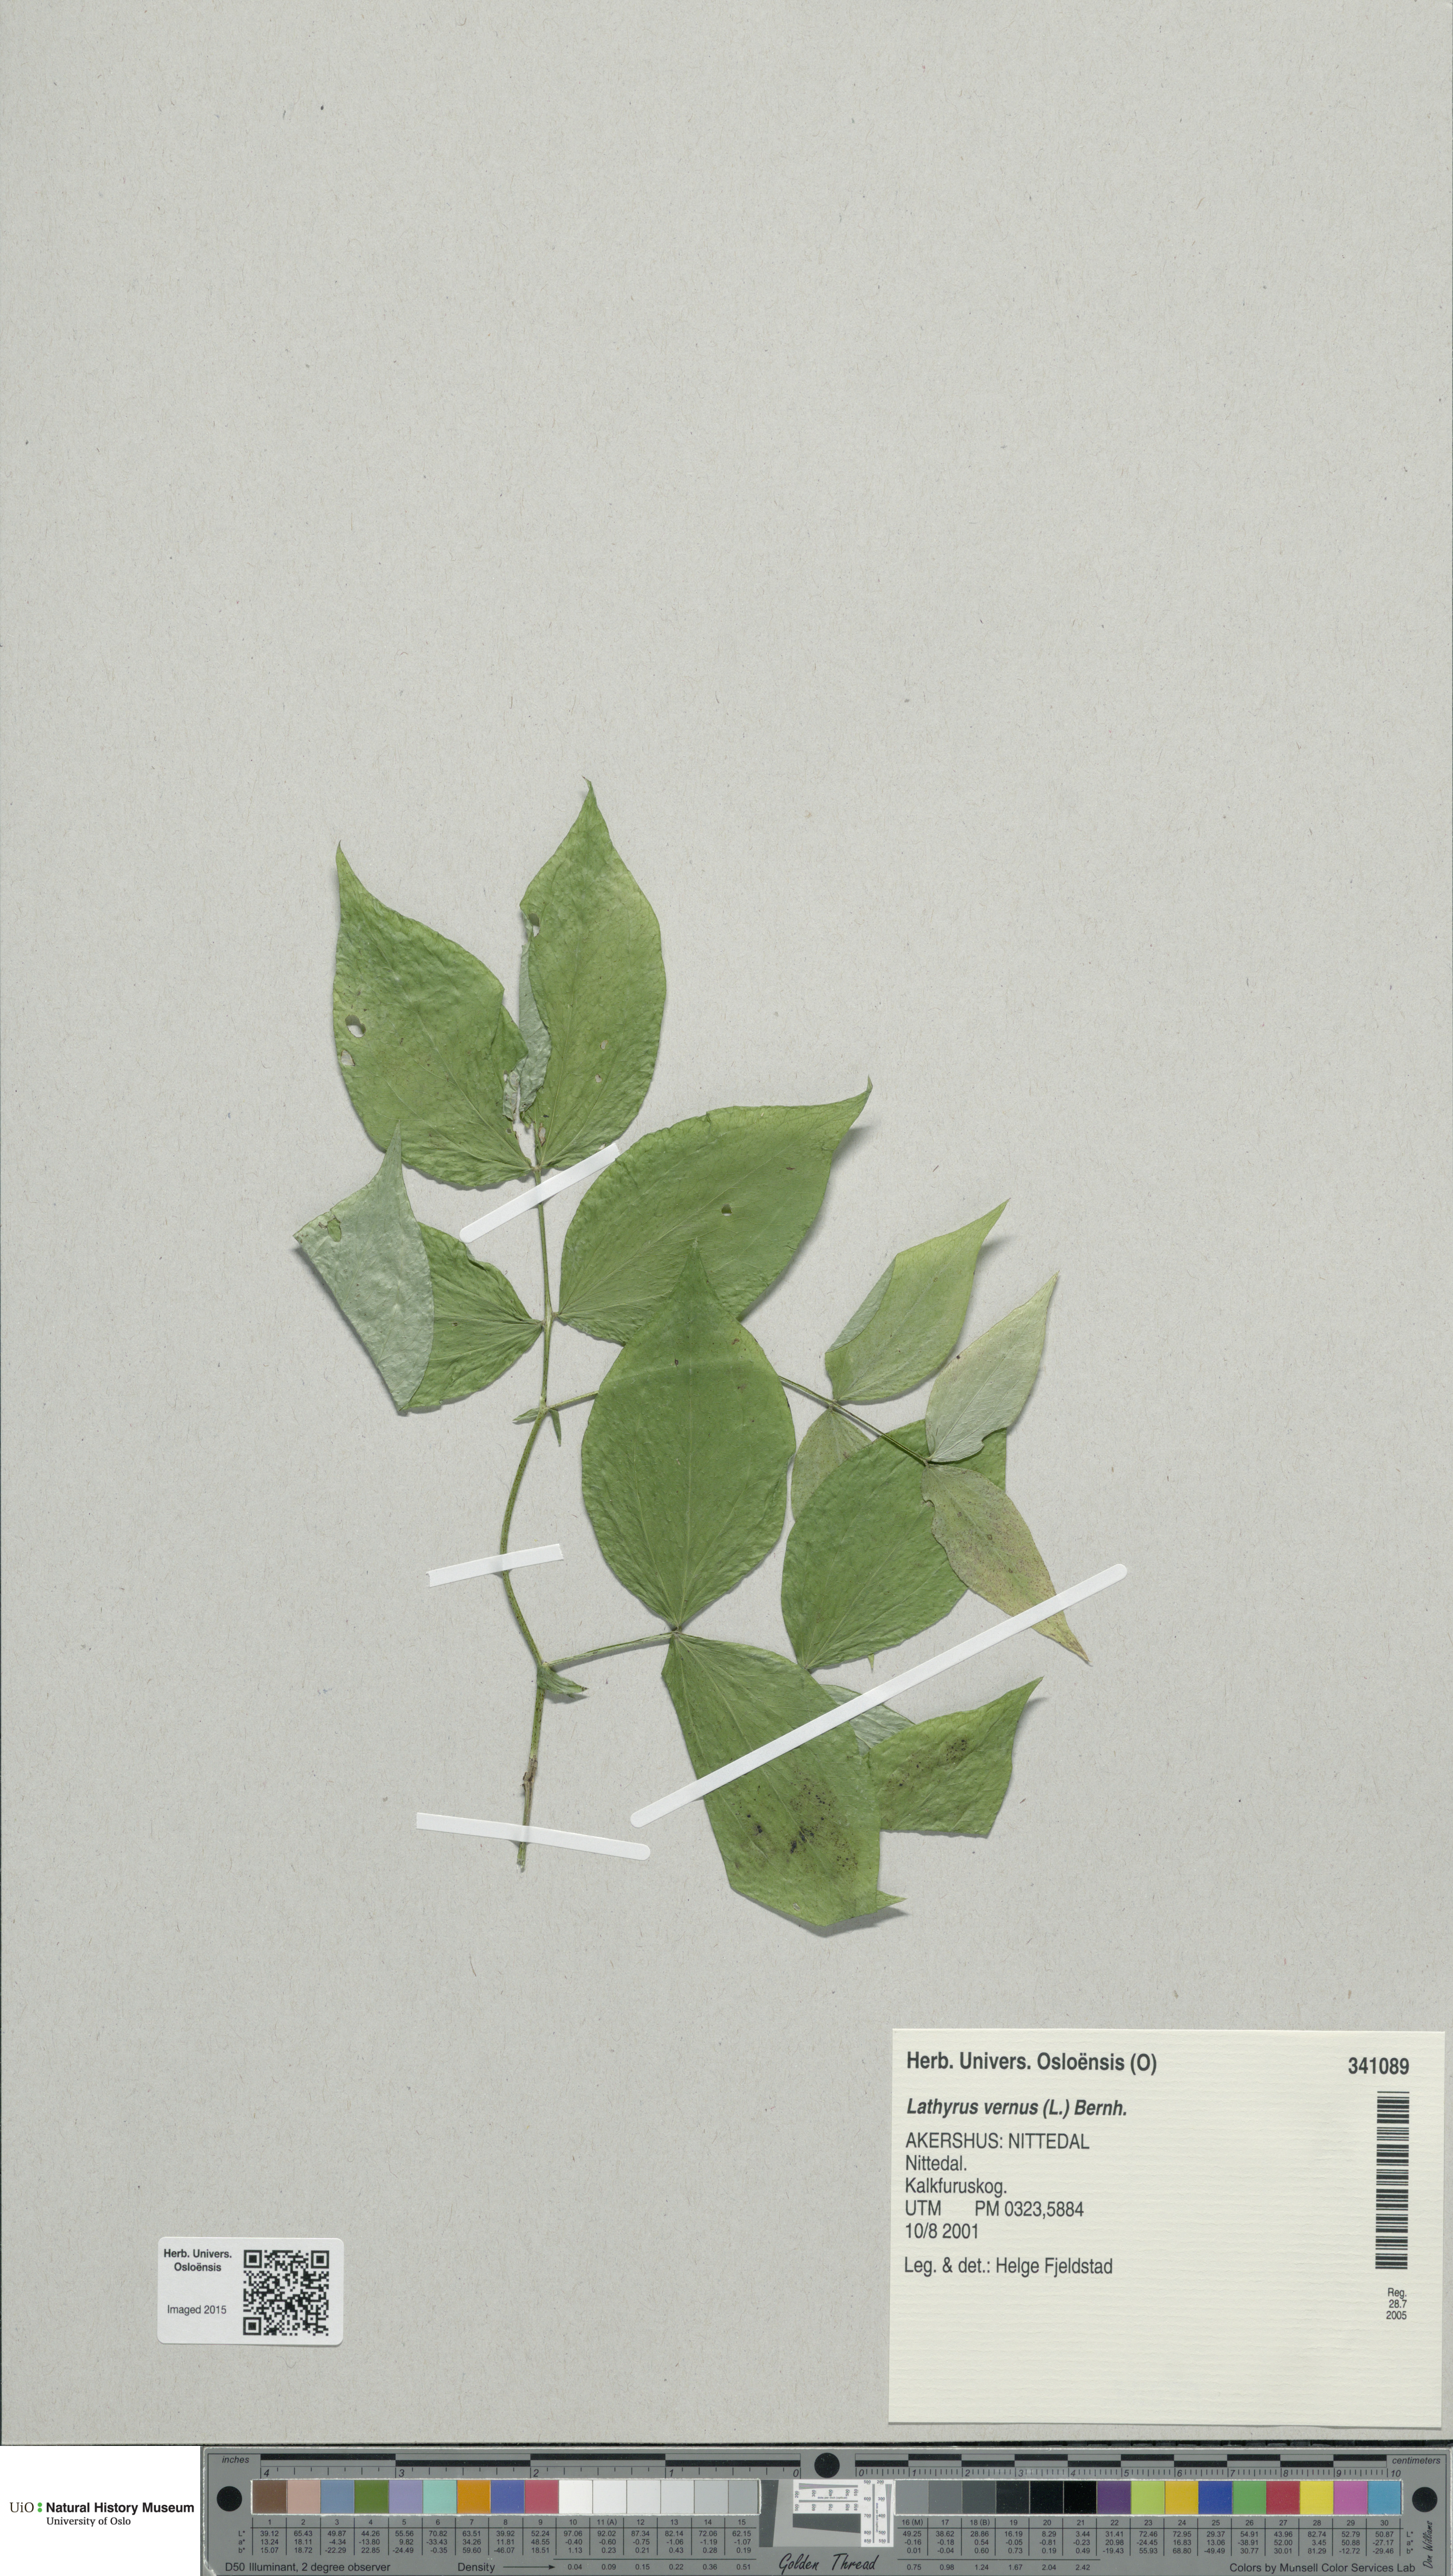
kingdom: Plantae
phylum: Tracheophyta
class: Magnoliopsida
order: Fabales
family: Fabaceae
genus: Lathyrus
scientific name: Lathyrus vernus
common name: Spring pea
